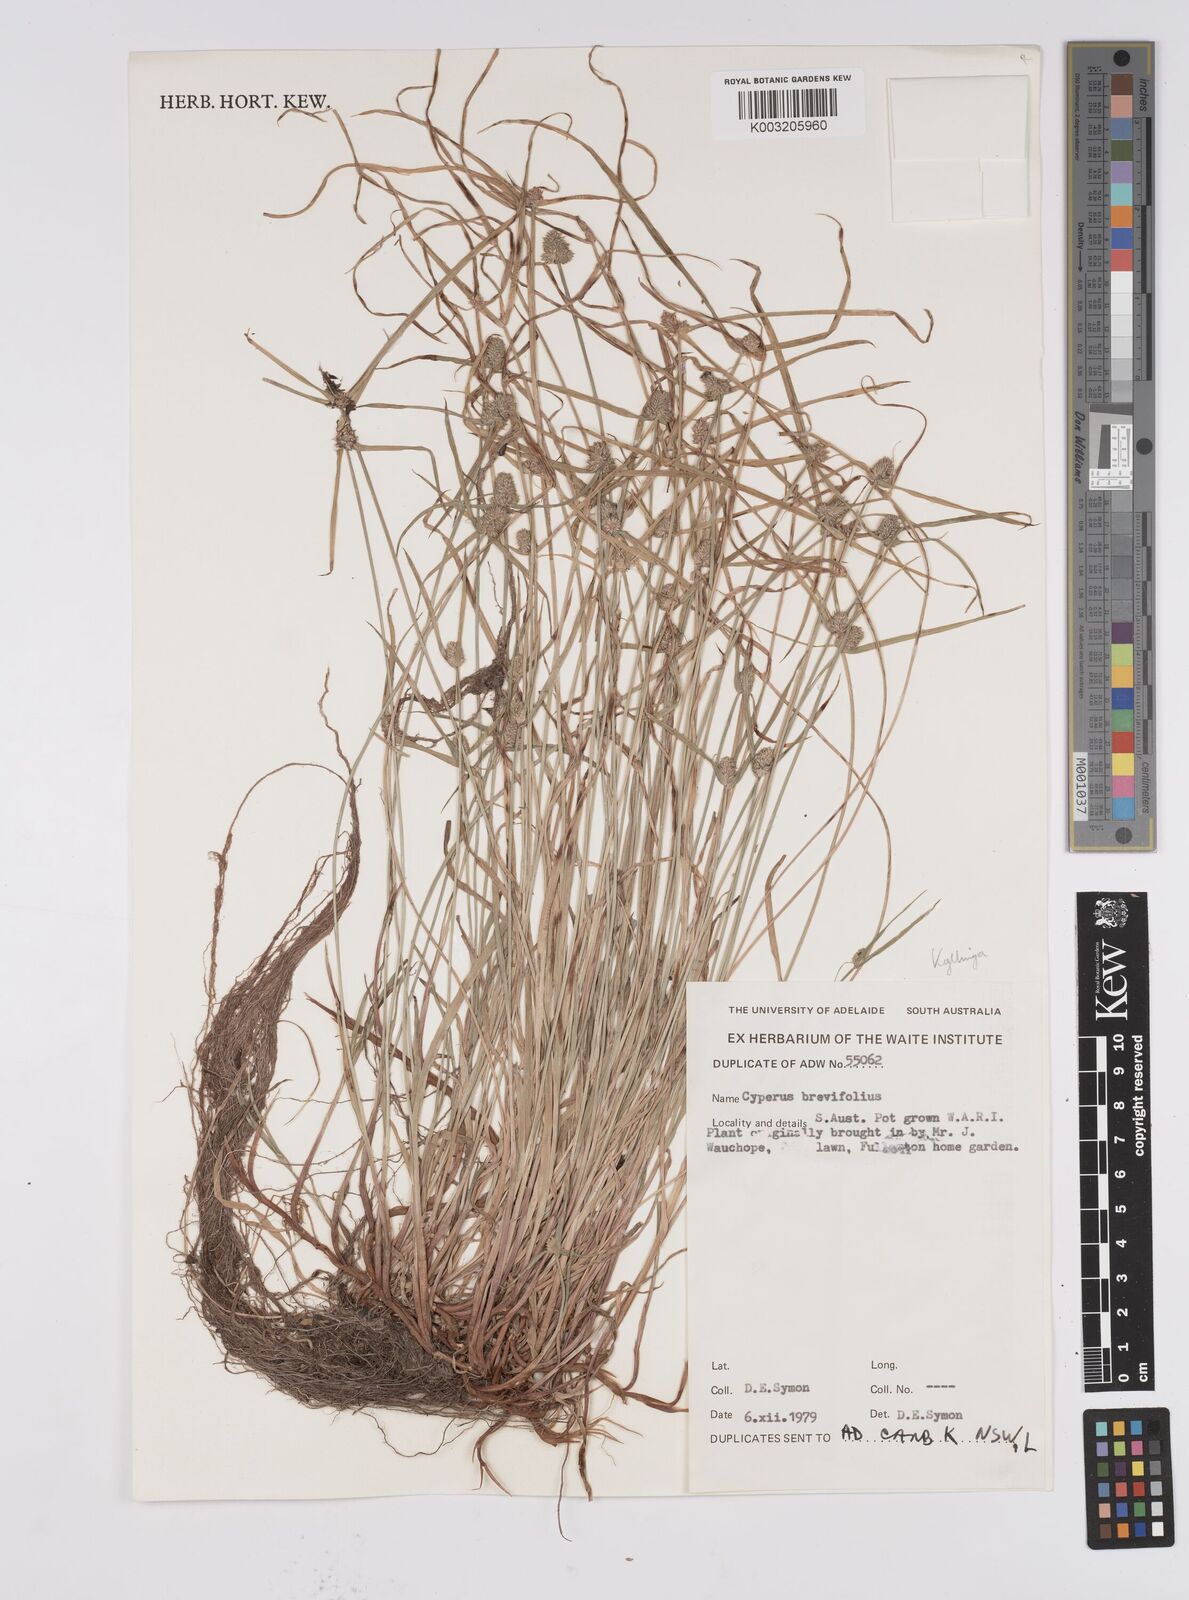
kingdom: Plantae
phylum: Tracheophyta
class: Liliopsida
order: Poales
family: Cyperaceae
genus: Cyperus
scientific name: Cyperus brevifolius
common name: Globe kyllinga
